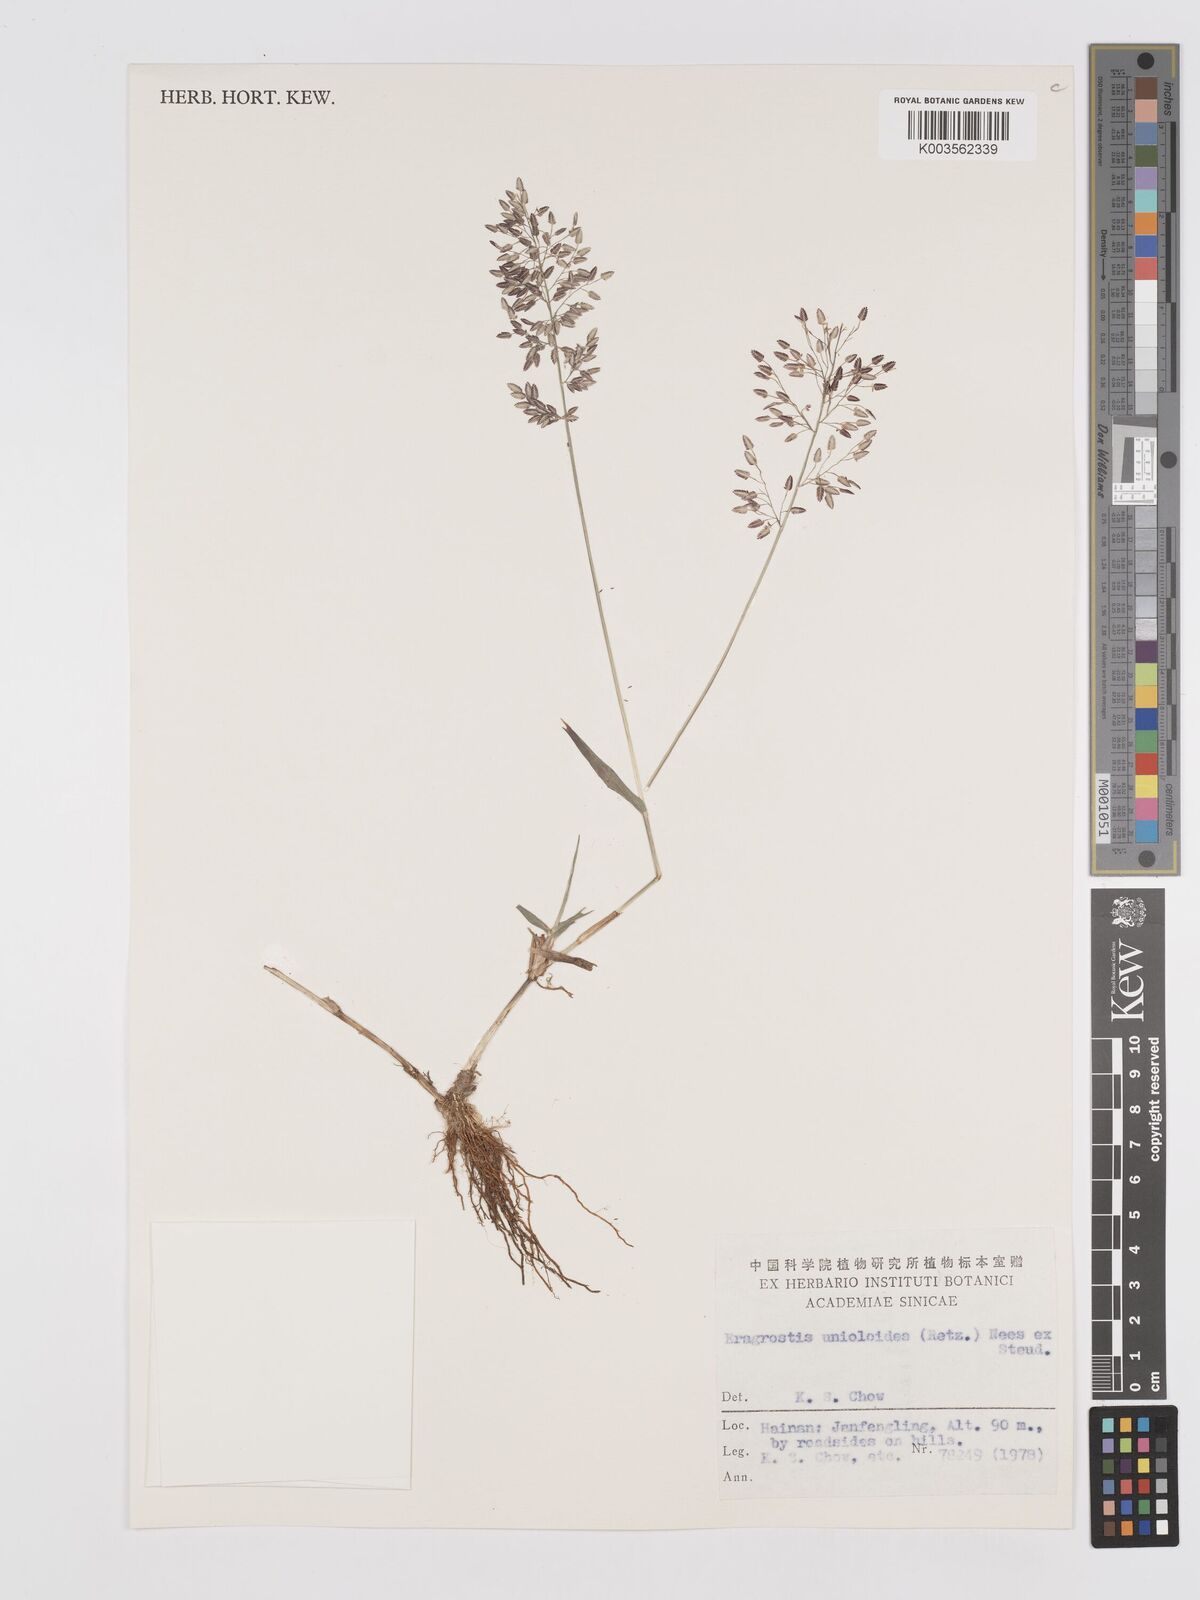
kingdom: Plantae
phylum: Tracheophyta
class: Liliopsida
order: Poales
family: Poaceae
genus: Eragrostis
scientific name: Eragrostis unioloides
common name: Chinese lovegrass
